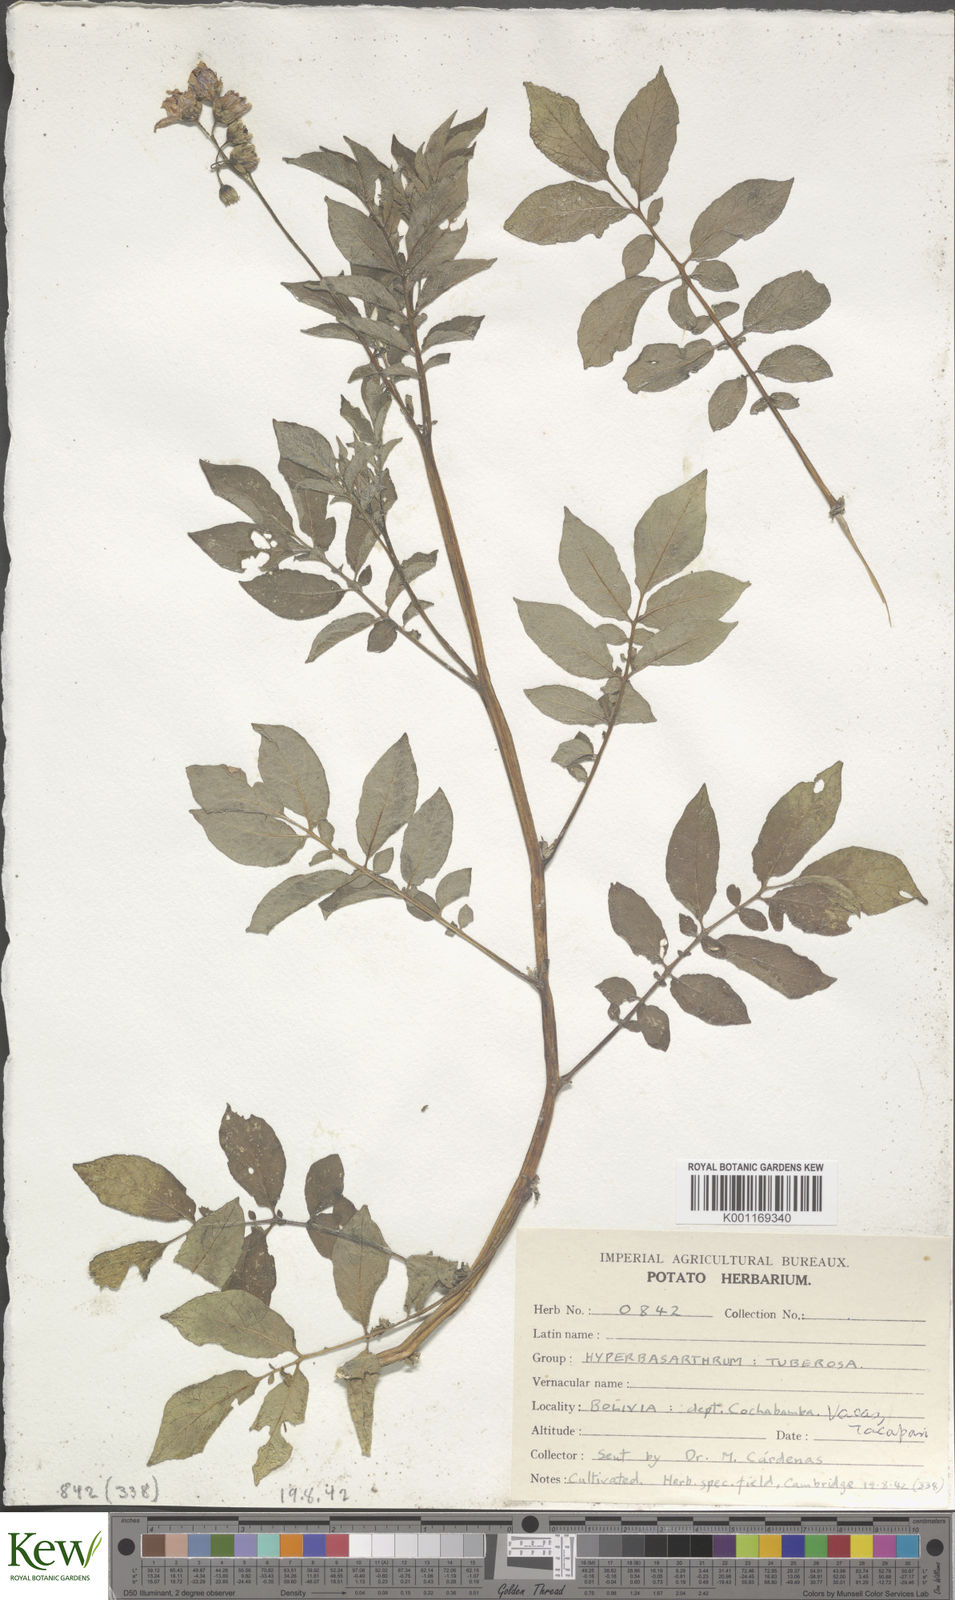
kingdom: Plantae
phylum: Tracheophyta
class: Magnoliopsida
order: Solanales
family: Solanaceae
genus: Solanum
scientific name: Solanum chaucha
